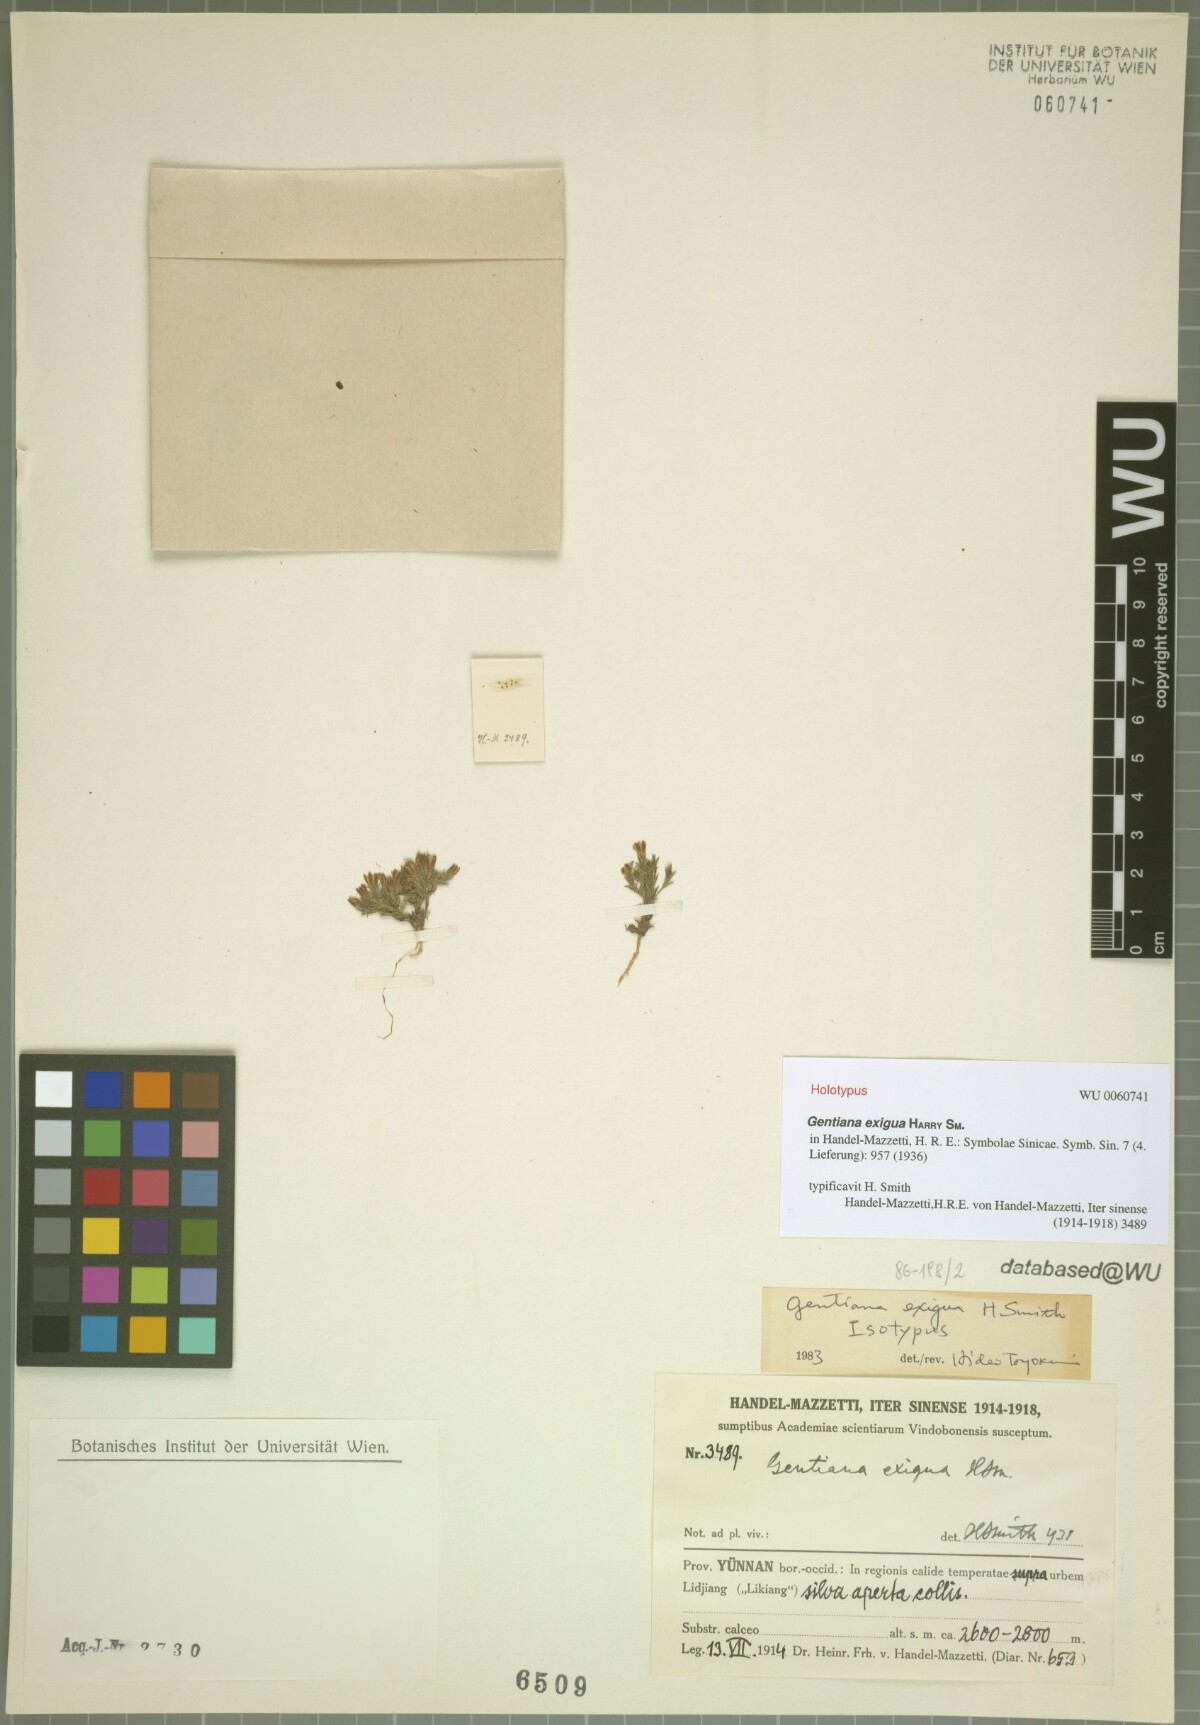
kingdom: Plantae
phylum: Tracheophyta
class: Magnoliopsida
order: Gentianales
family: Gentianaceae
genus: Gentiana
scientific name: Gentiana exigua
